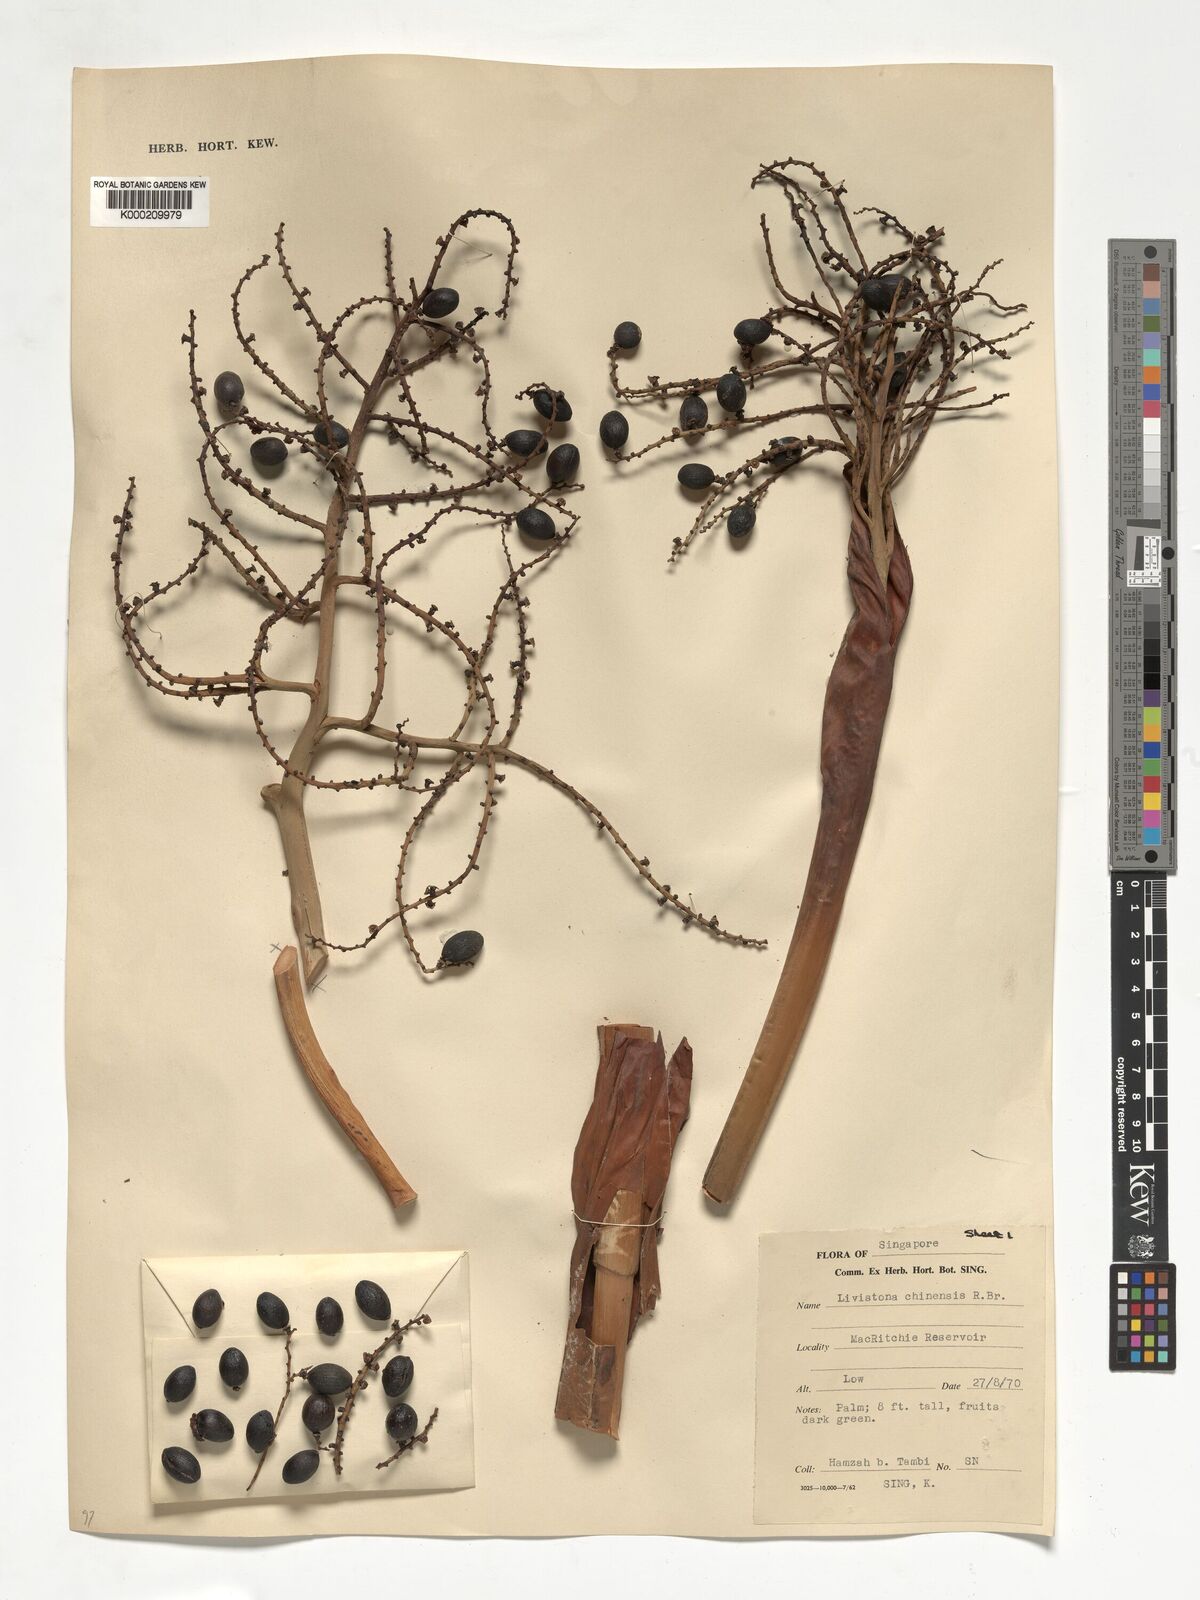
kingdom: Plantae
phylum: Tracheophyta
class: Liliopsida
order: Arecales
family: Arecaceae
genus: Livistona
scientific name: Livistona chinensis
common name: Fountain palm
